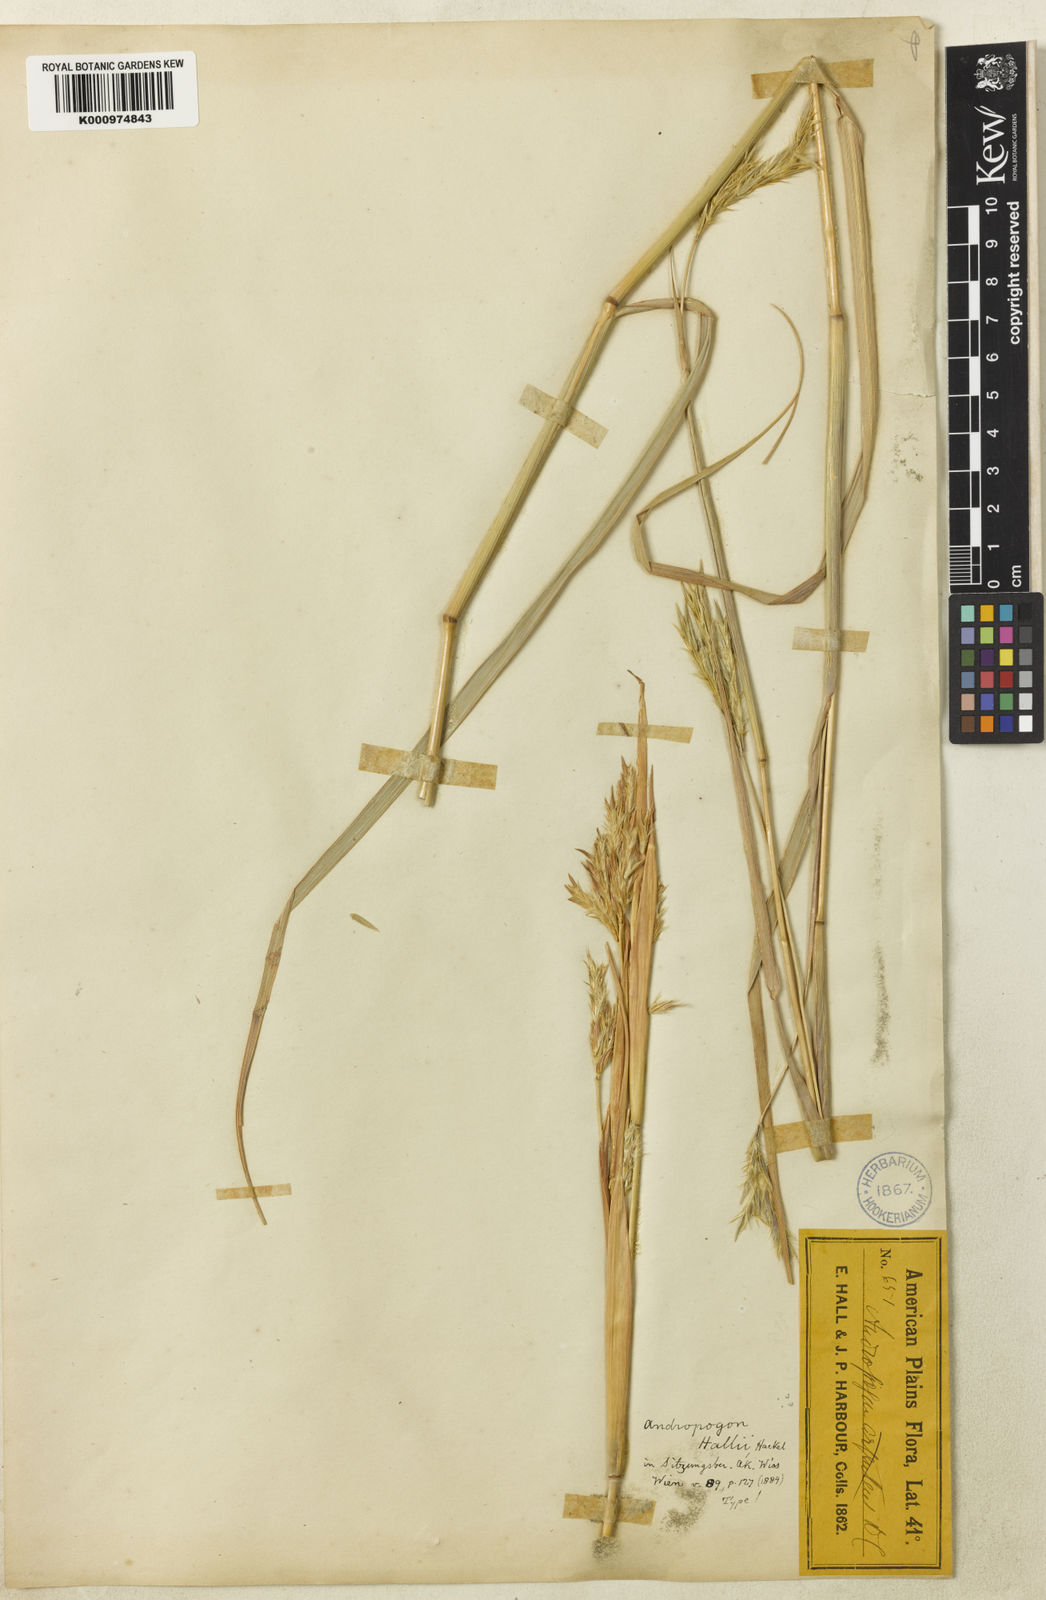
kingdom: Plantae
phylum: Tracheophyta
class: Liliopsida
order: Poales
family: Poaceae
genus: Andropogon
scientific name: Andropogon hallii
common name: Sand bluestem
